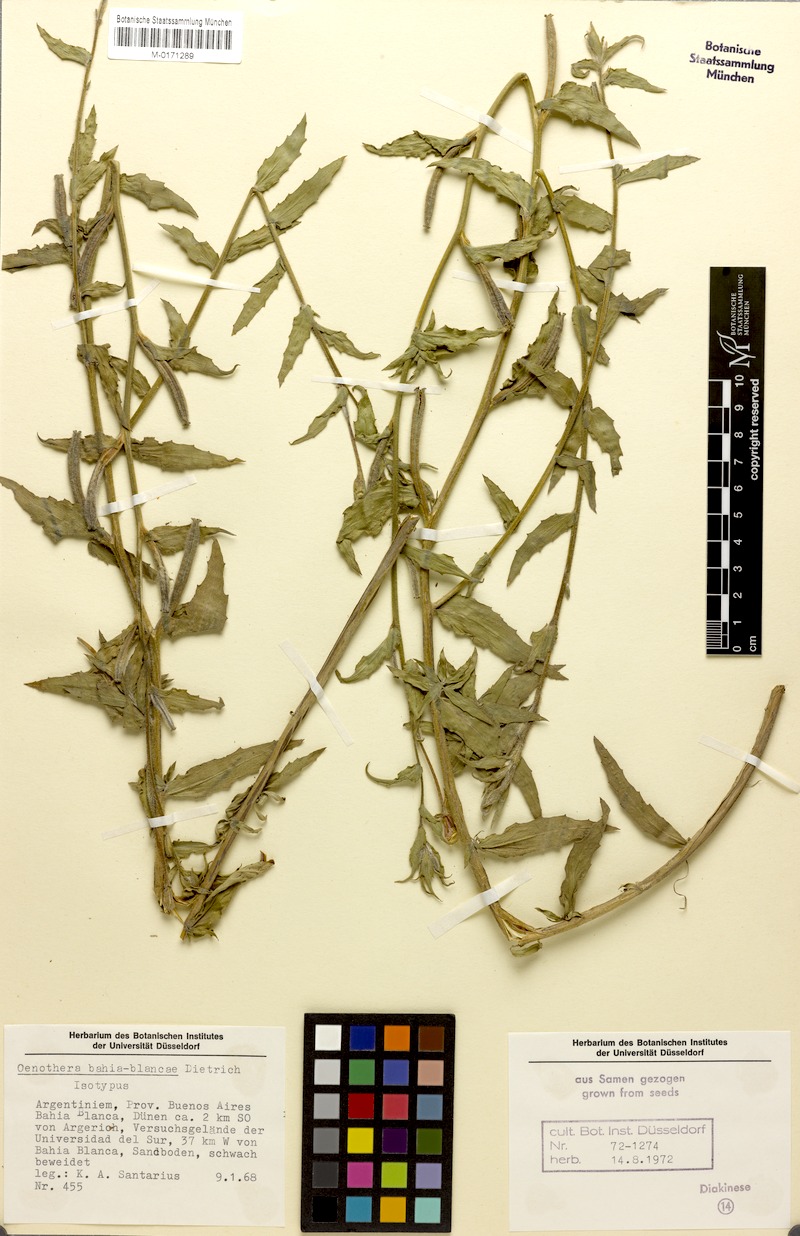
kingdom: Plantae
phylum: Tracheophyta
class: Magnoliopsida
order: Myrtales
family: Onagraceae
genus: Oenothera
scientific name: Oenothera bahia-blancae
